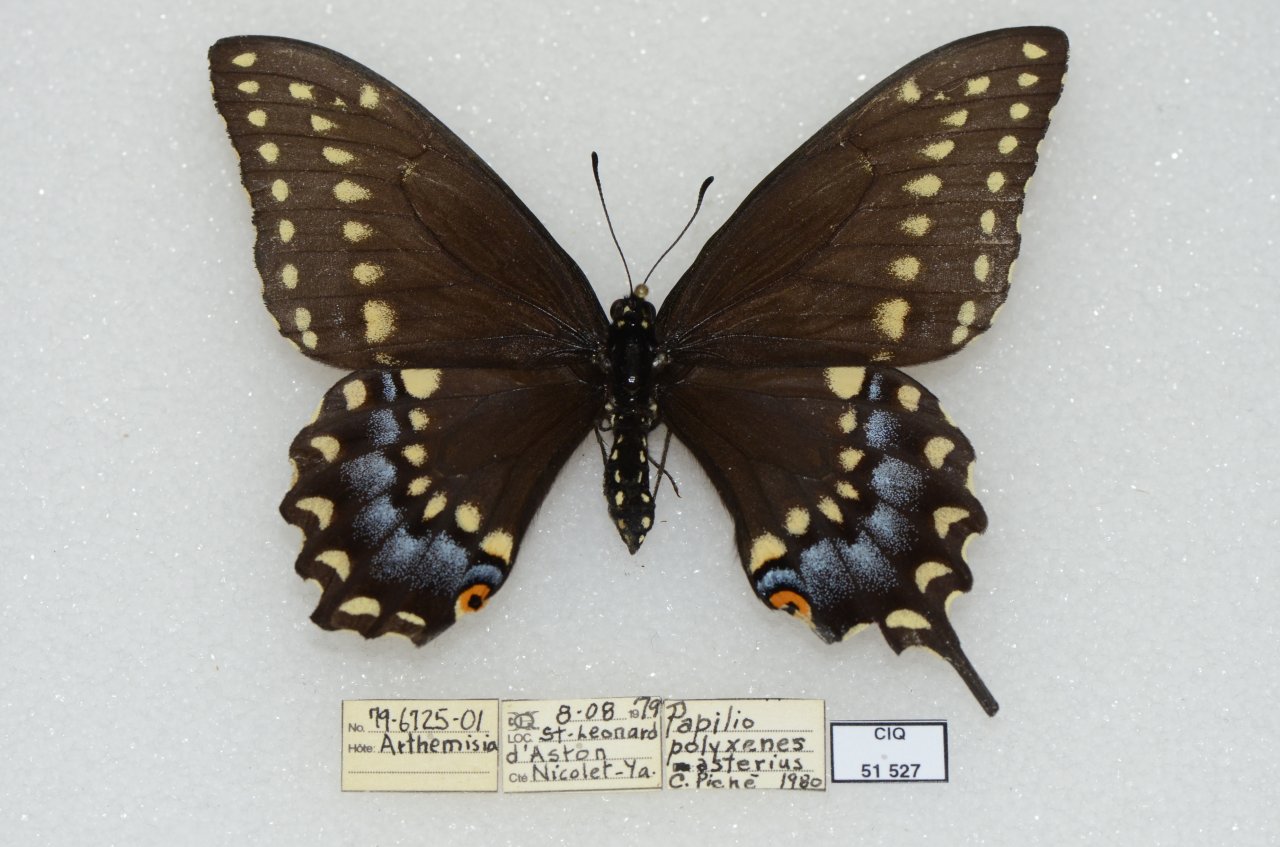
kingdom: Animalia
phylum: Arthropoda
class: Insecta
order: Lepidoptera
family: Papilionidae
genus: Papilio
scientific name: Papilio polyxenes
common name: Black Swallowtail
